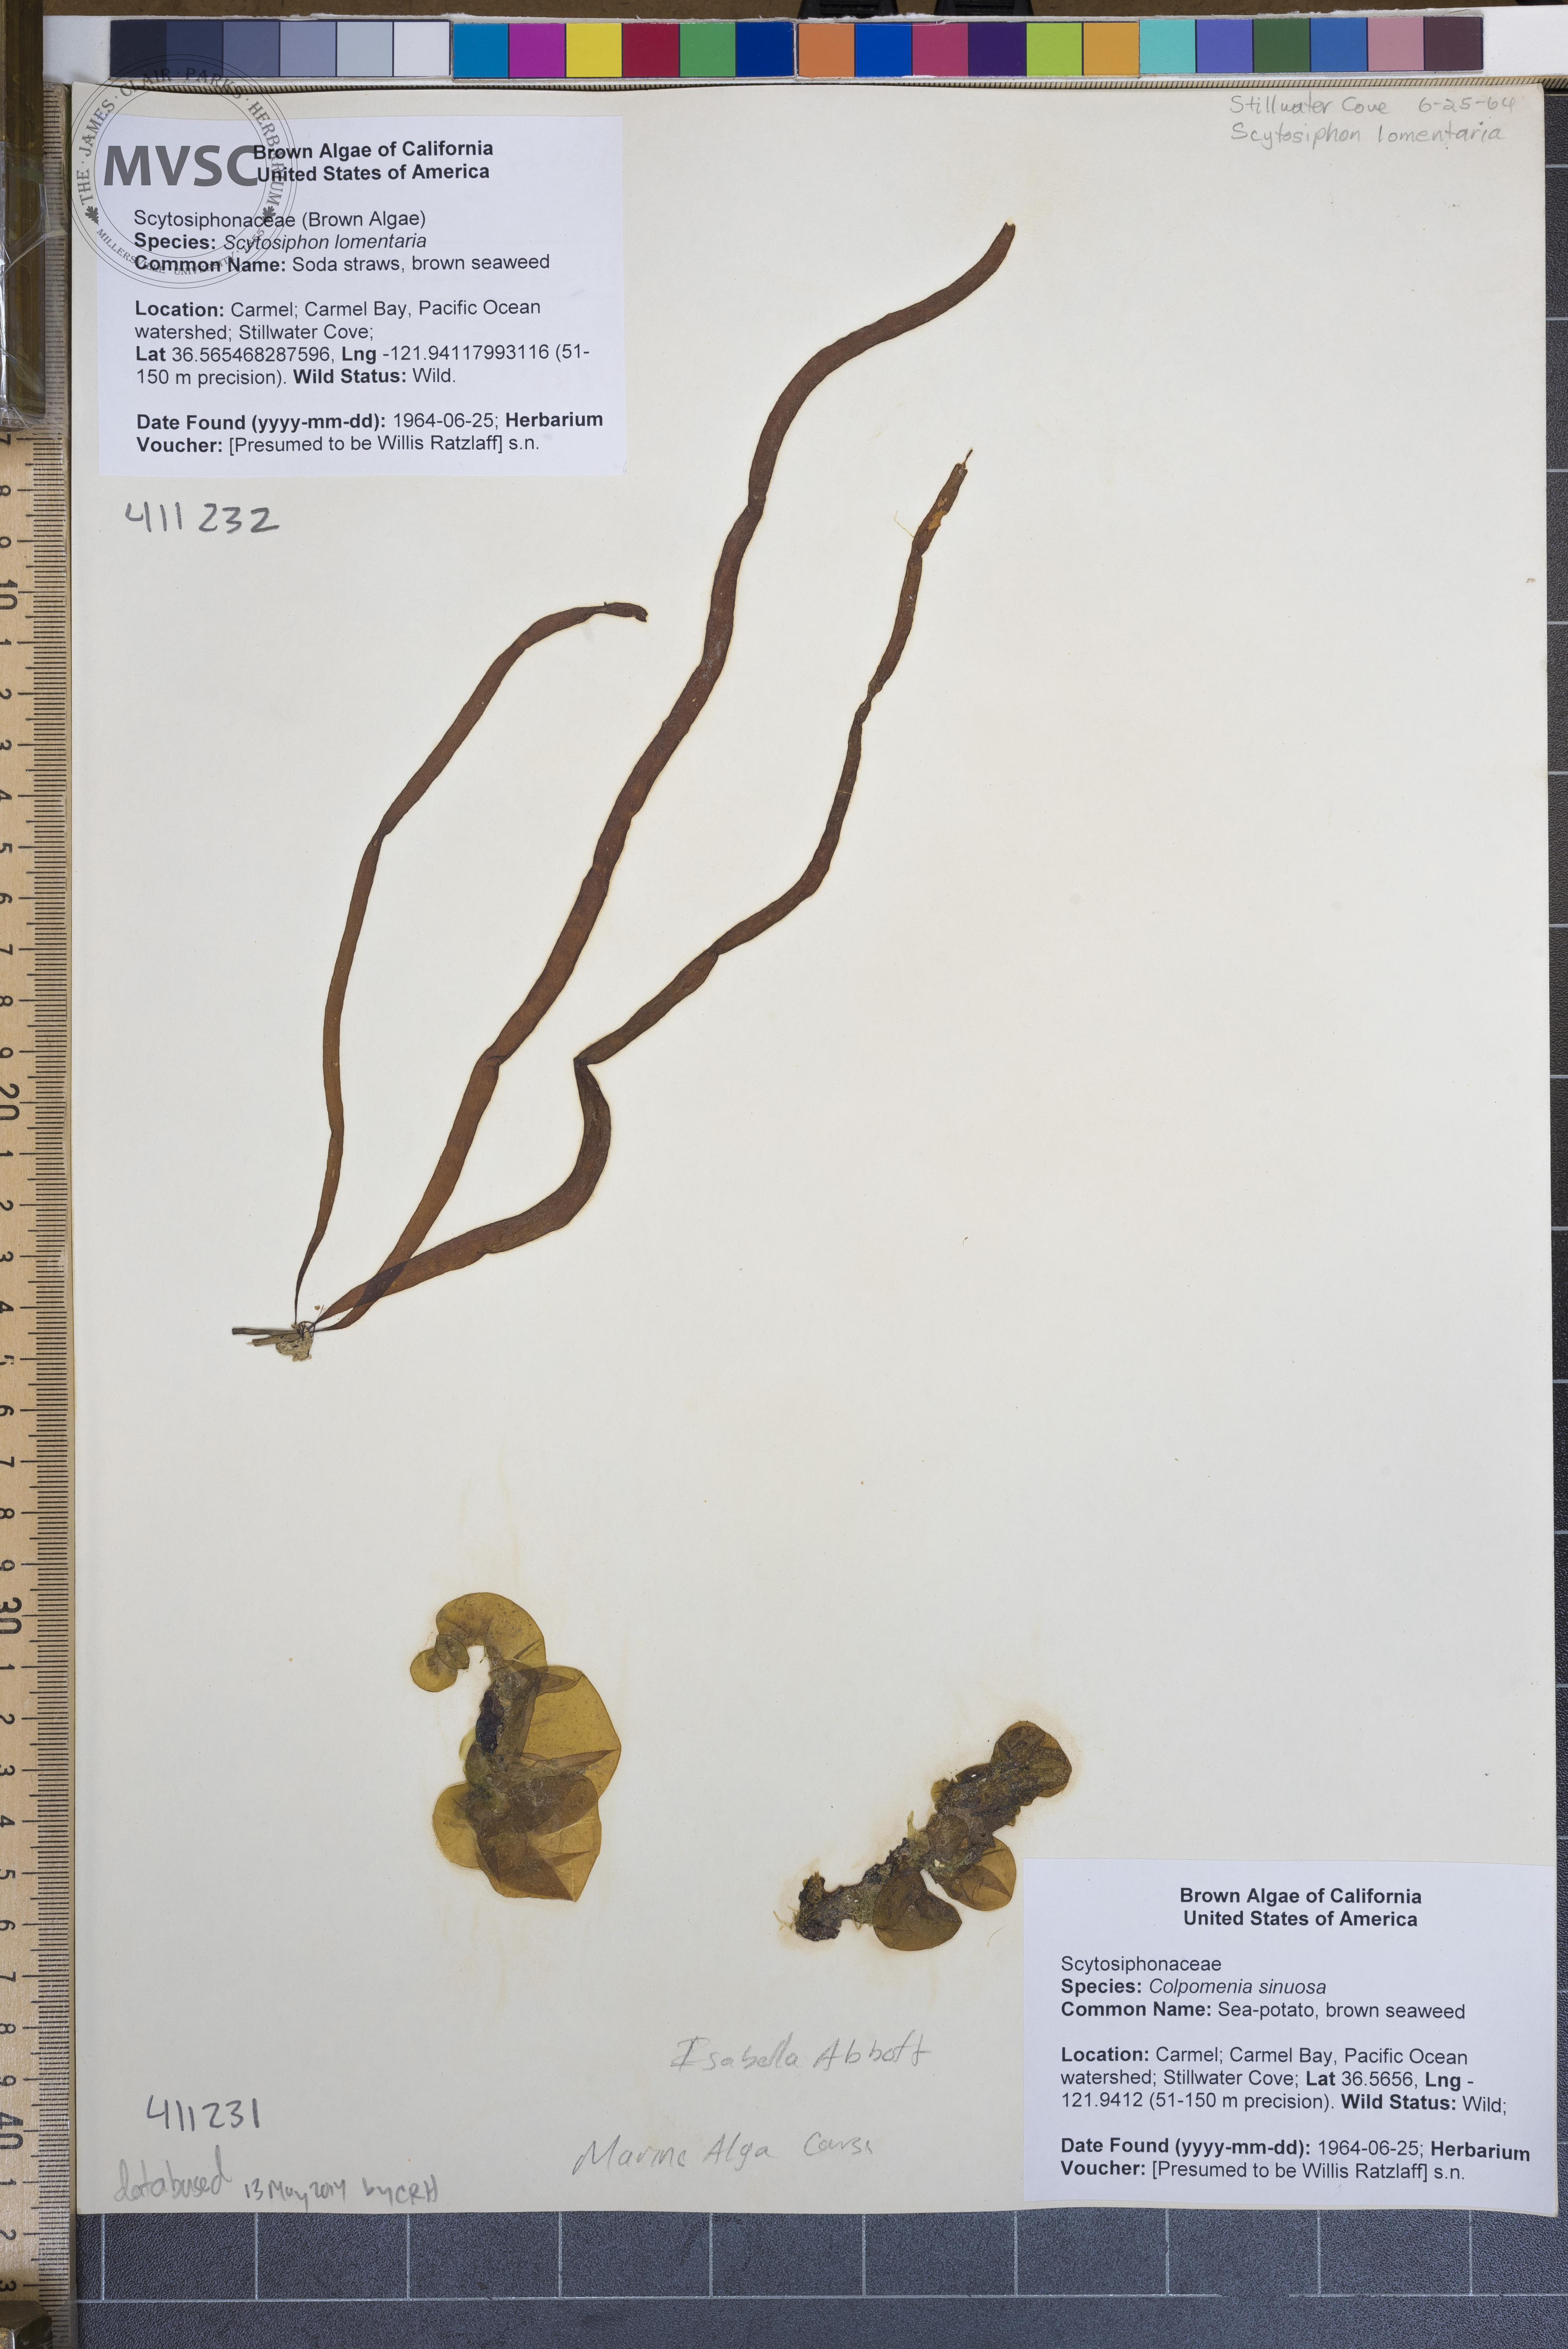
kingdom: Chromista
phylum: Ochrophyta
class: Phaeophyceae
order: Scytosiphonales
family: Scytosiphonaceae
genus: Scytosiphon
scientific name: Scytosiphon lomentaria
